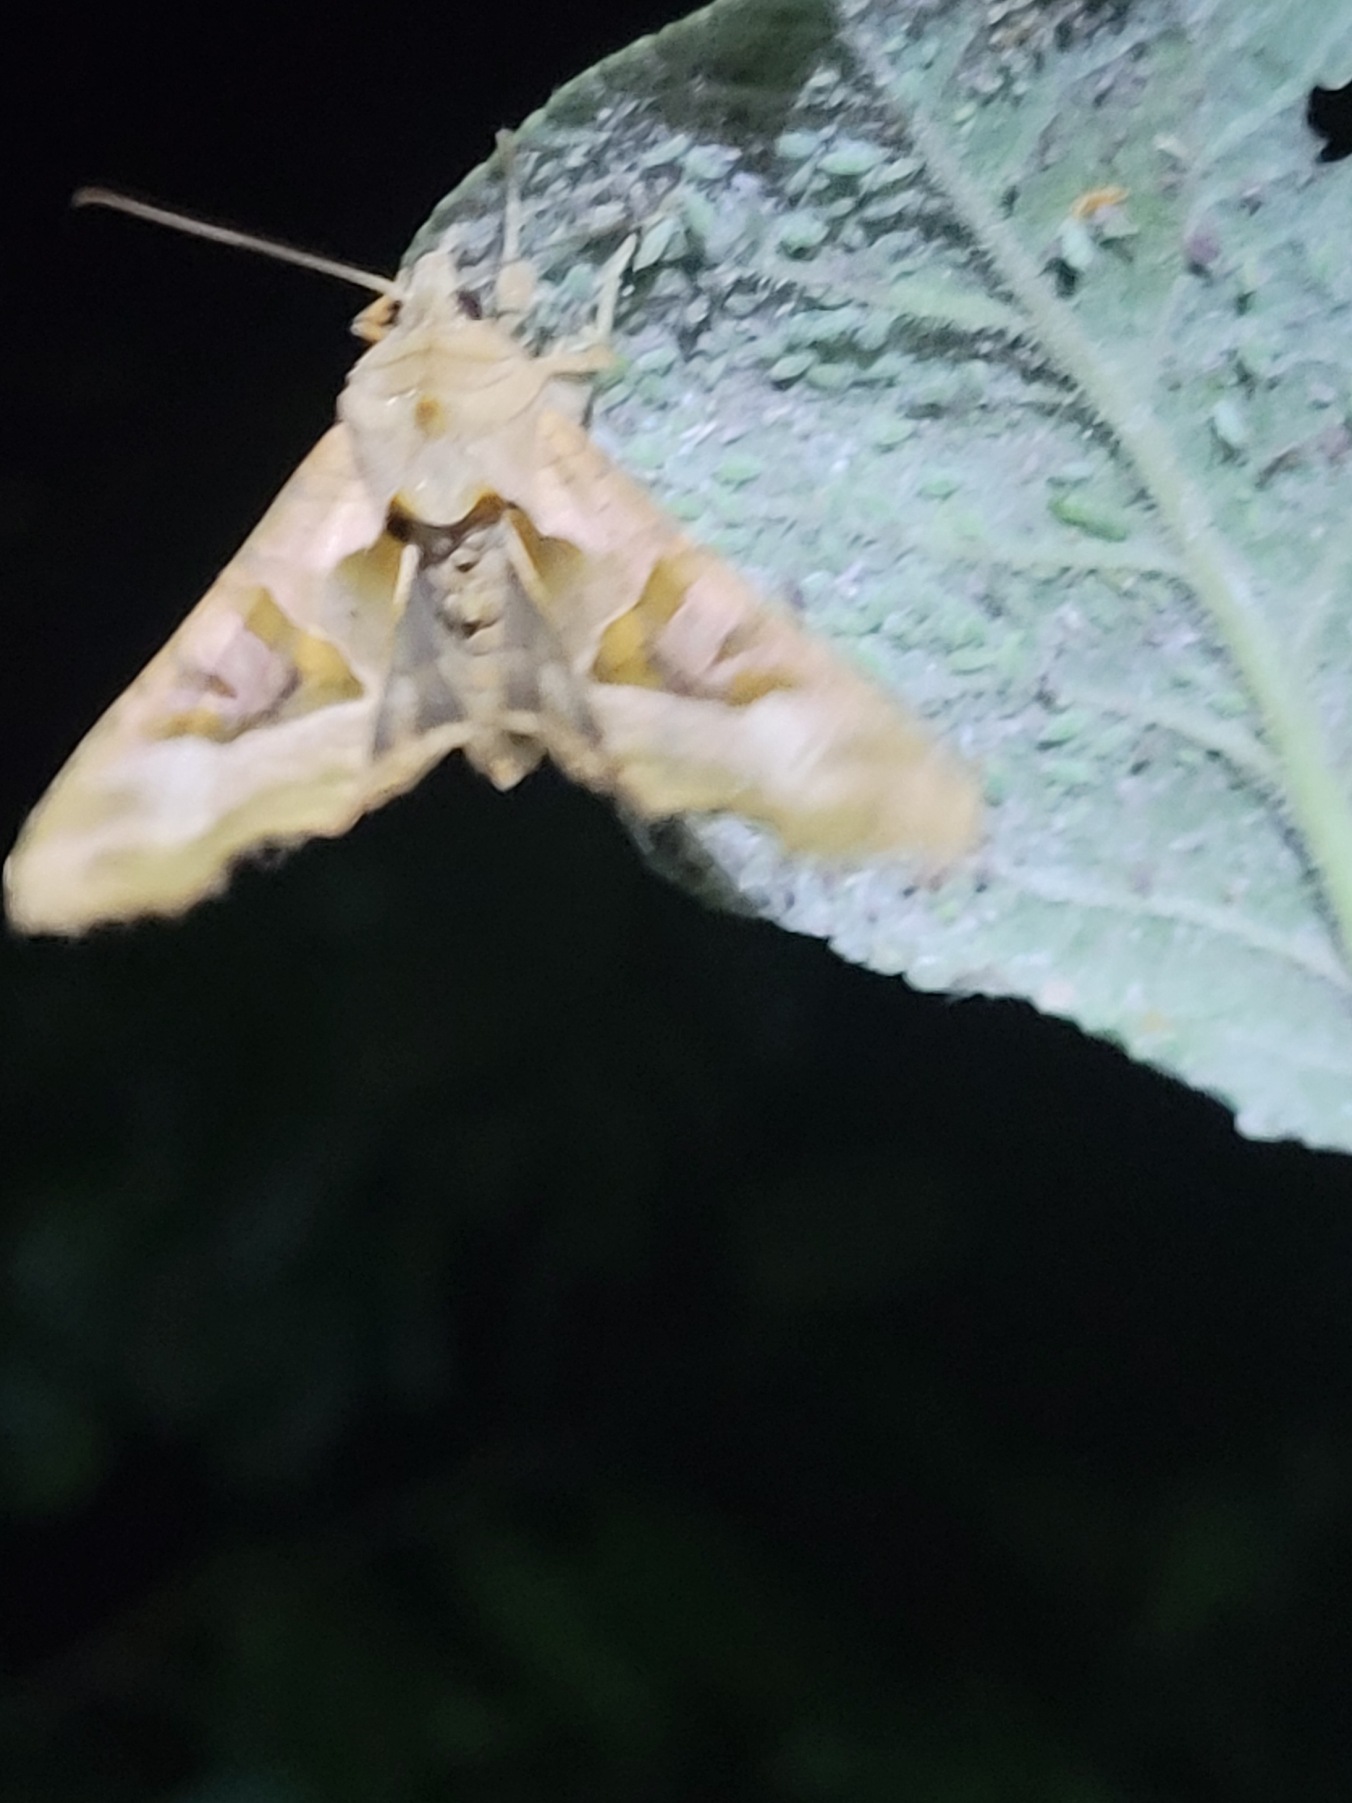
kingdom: Animalia
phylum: Arthropoda
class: Insecta
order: Lepidoptera
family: Noctuidae
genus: Phlogophora
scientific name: Phlogophora meticulosa
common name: Agatugle
